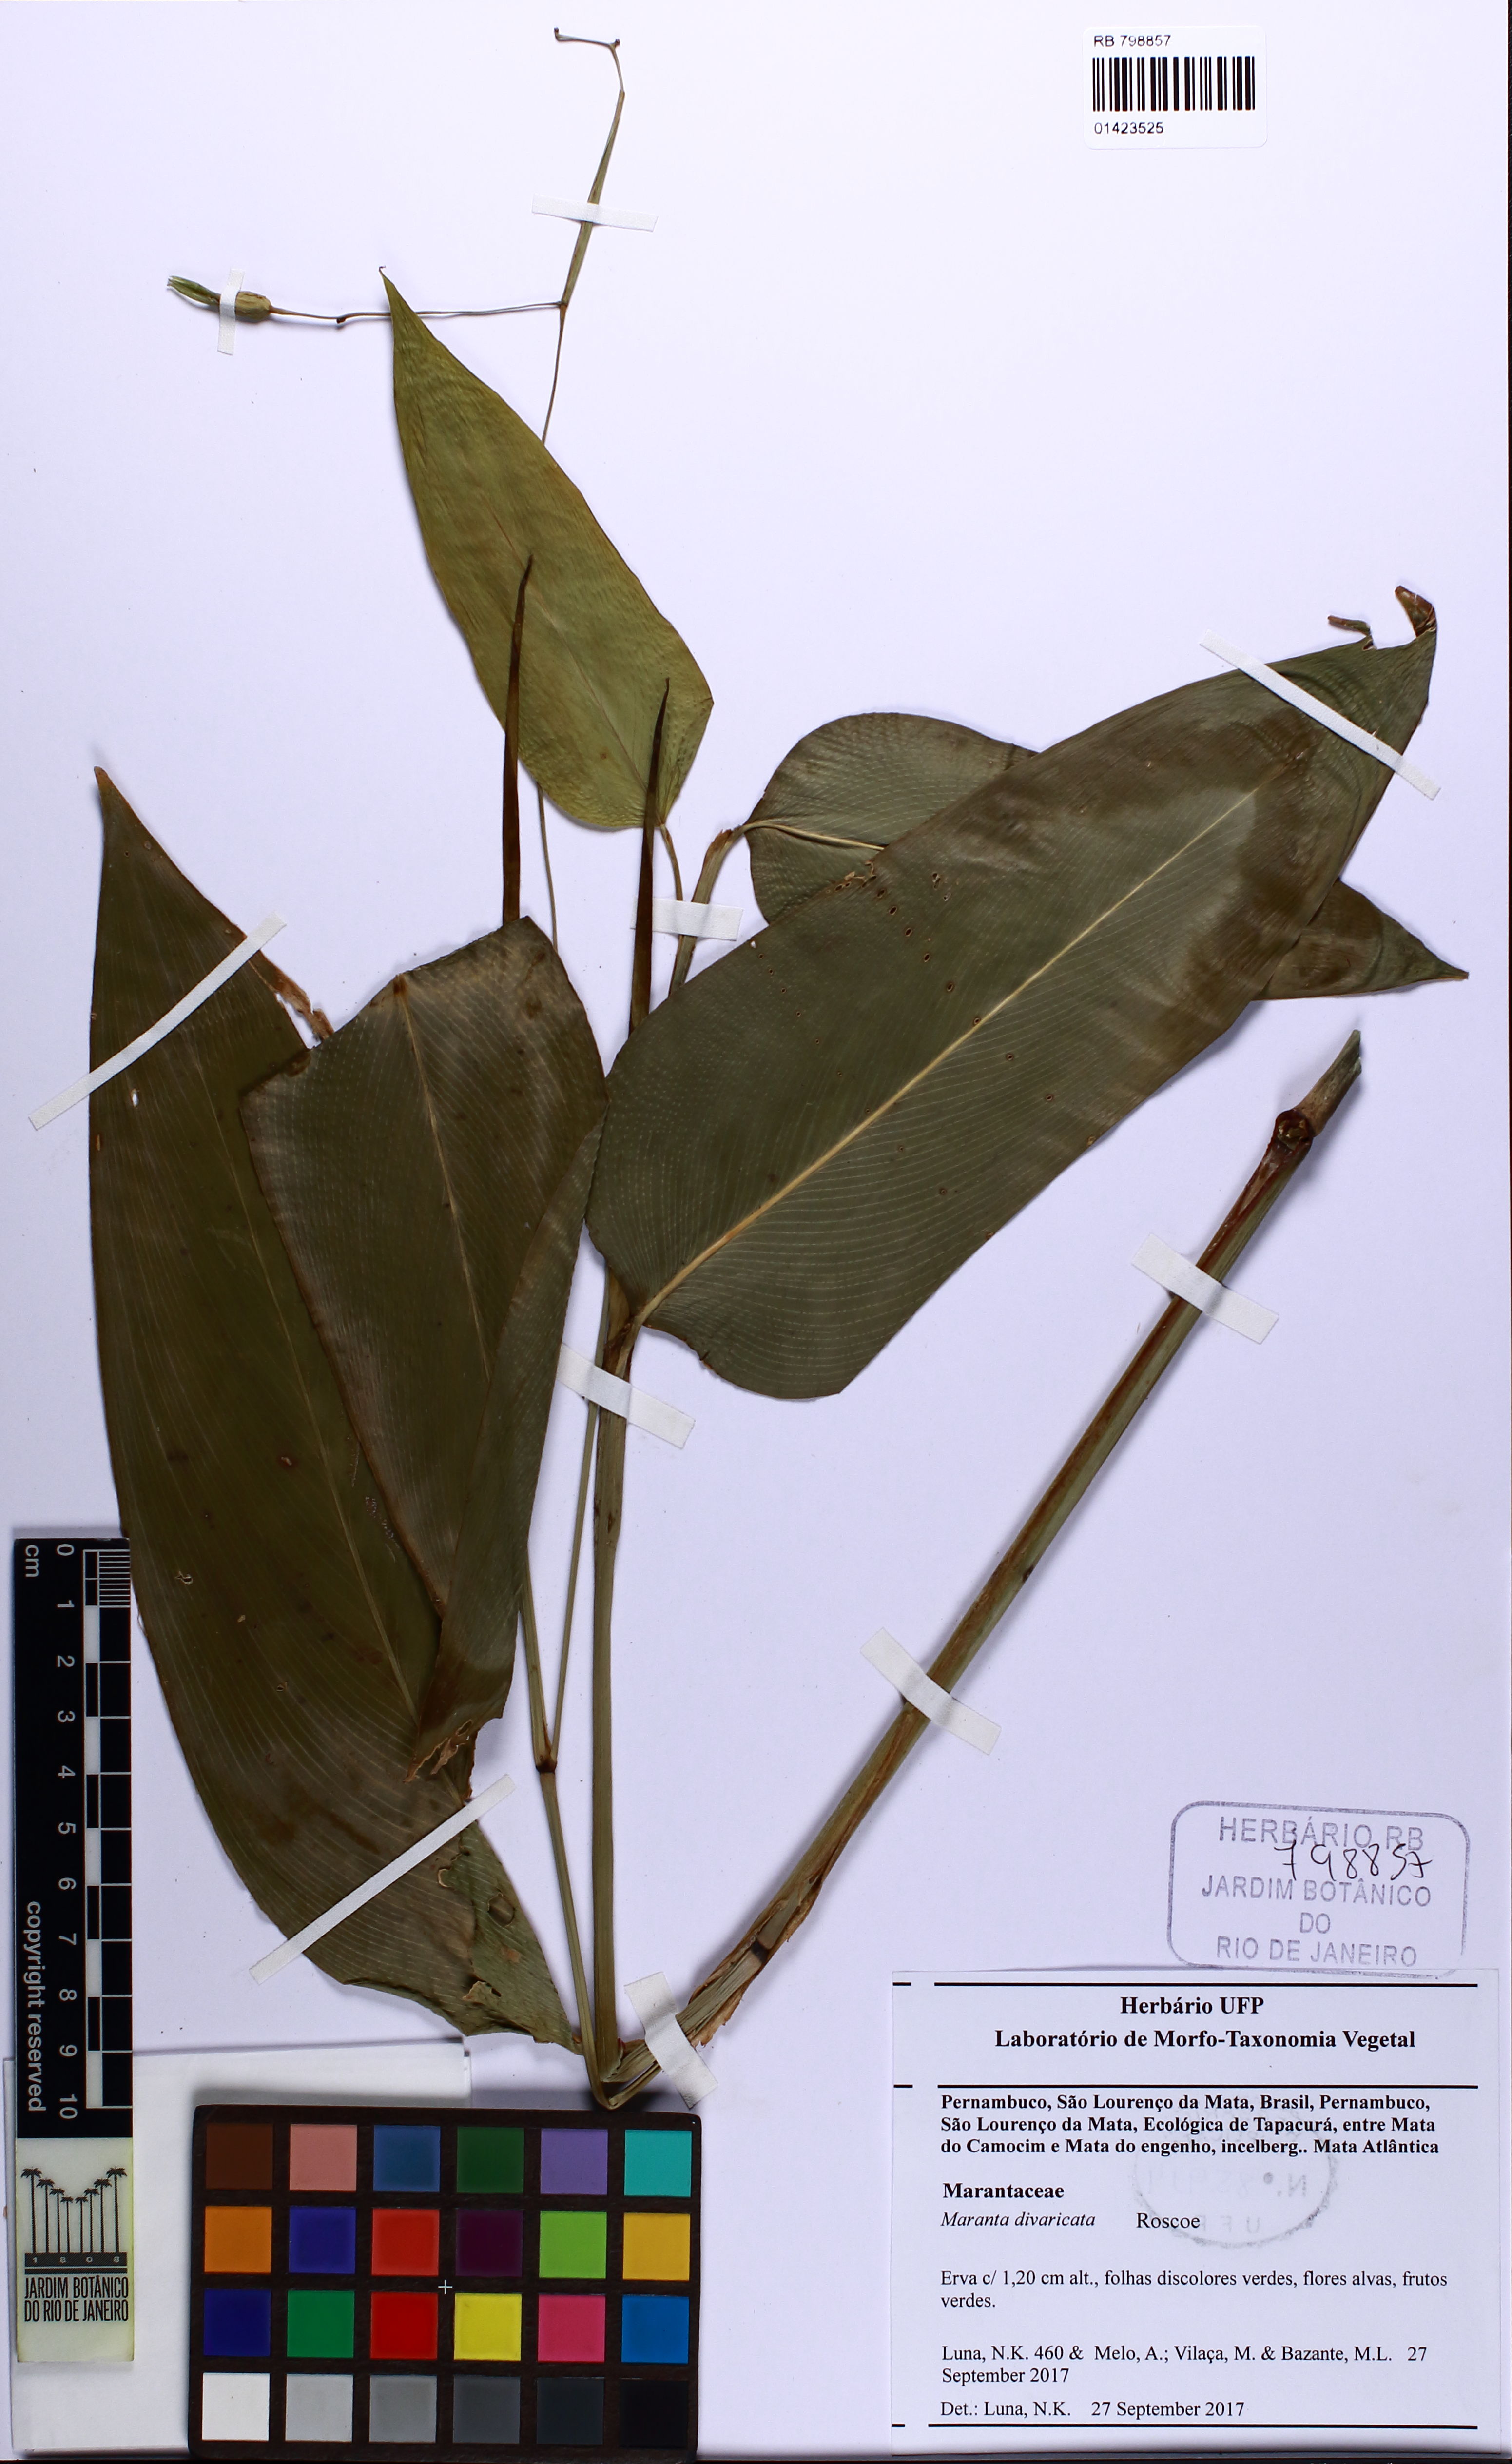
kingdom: Plantae
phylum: Tracheophyta
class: Liliopsida
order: Zingiberales
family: Marantaceae
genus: Maranta
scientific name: Maranta divaricata
